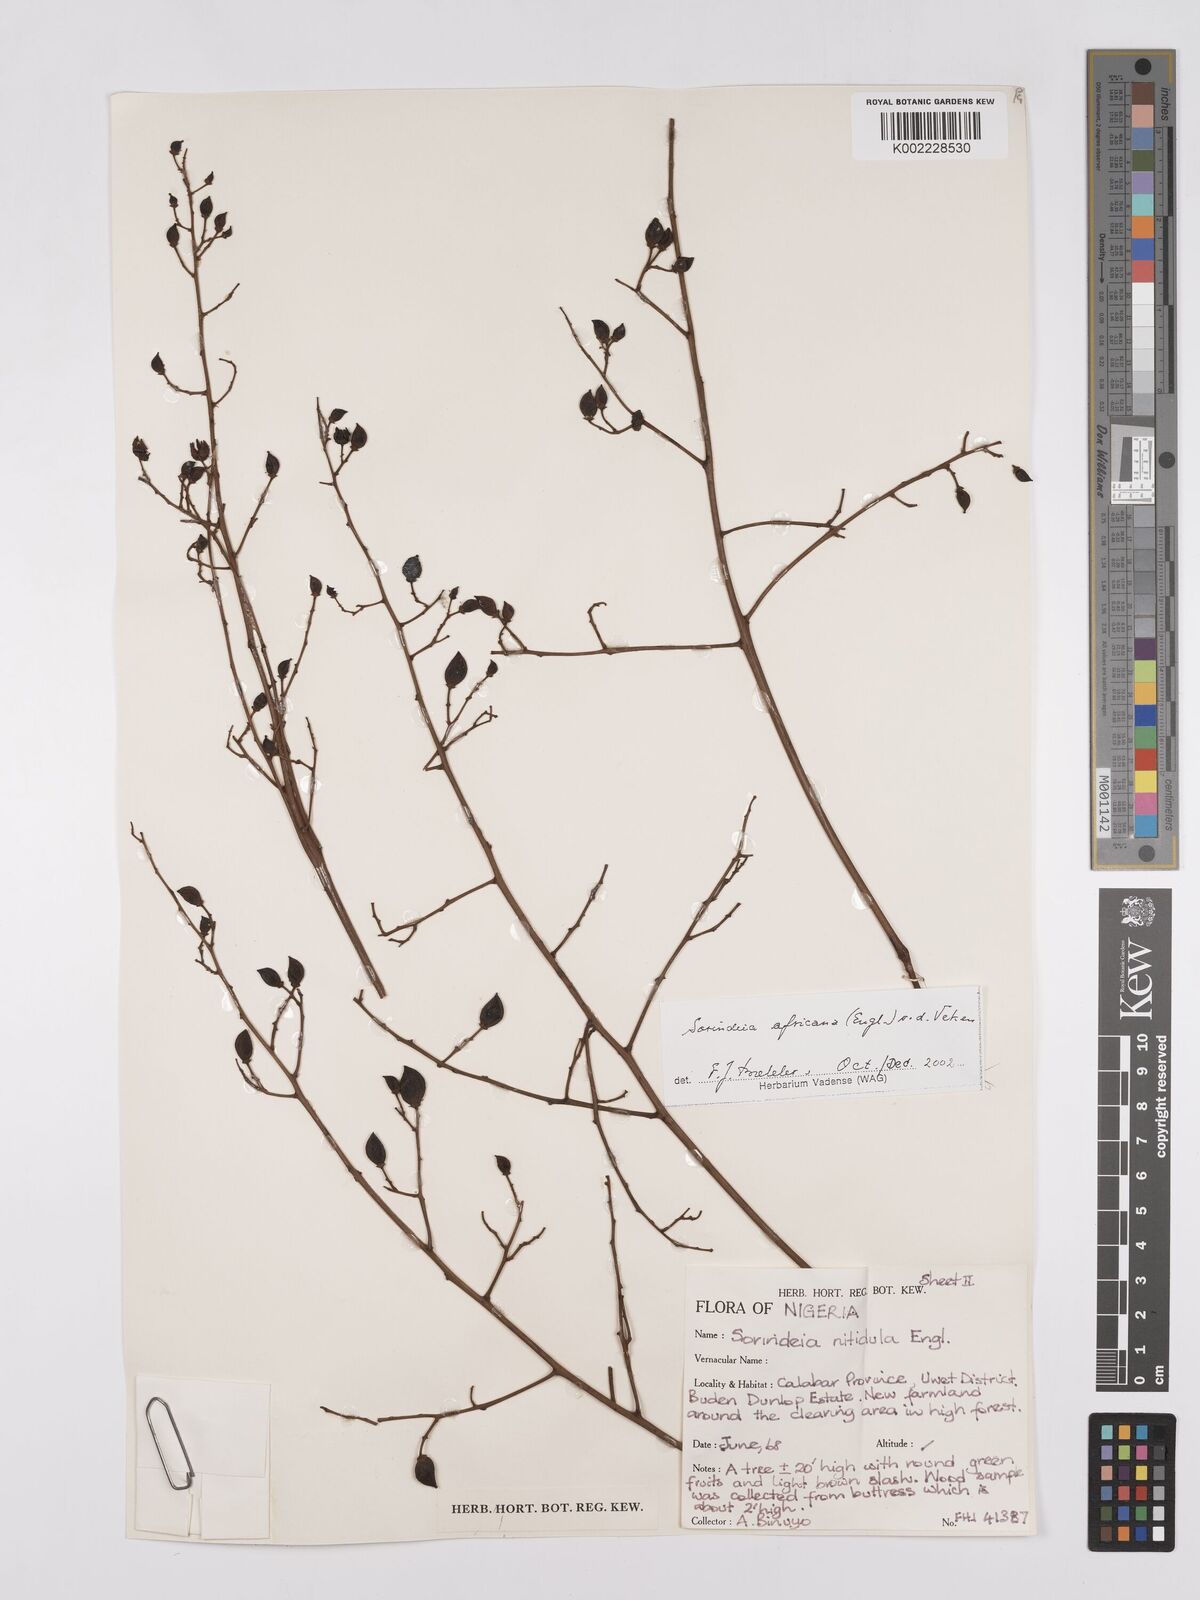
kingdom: Plantae
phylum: Tracheophyta
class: Magnoliopsida
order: Sapindales
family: Anacardiaceae
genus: Sorindeia
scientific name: Sorindeia africana
